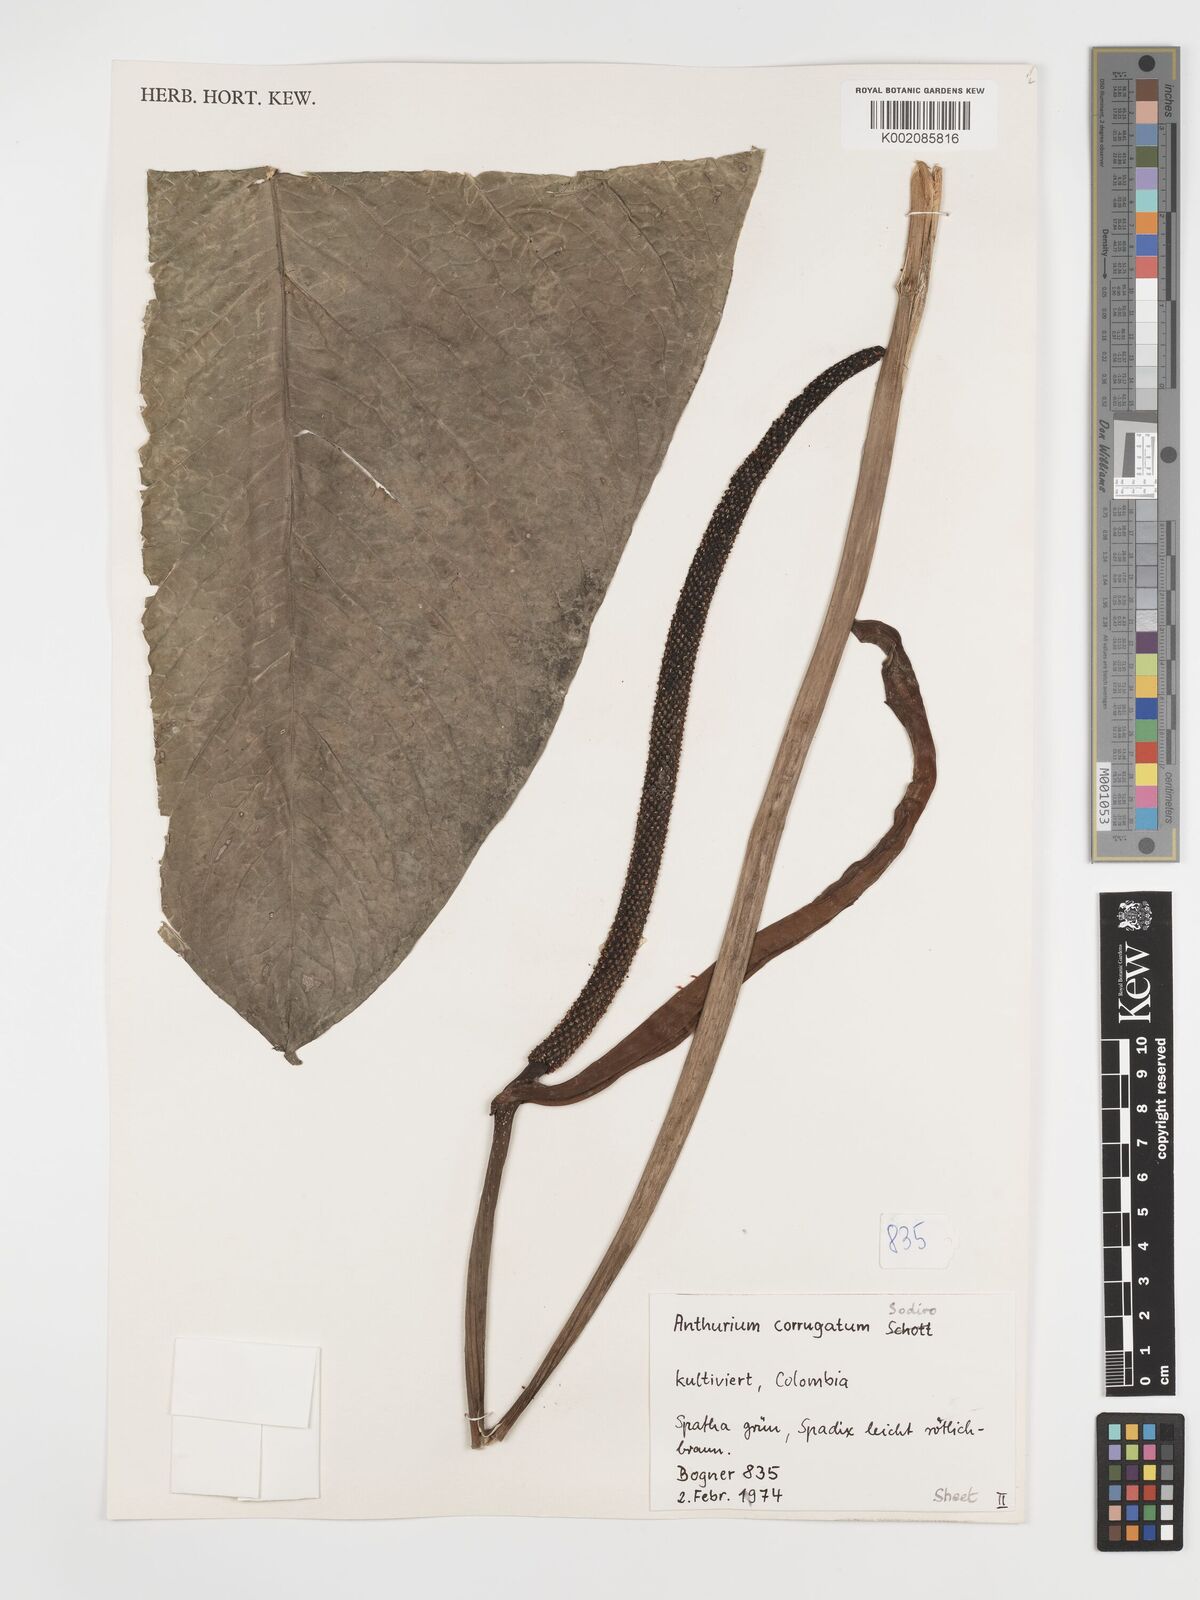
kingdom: Plantae
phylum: Tracheophyta
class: Liliopsida
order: Alismatales
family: Araceae
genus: Anthurium
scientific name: Anthurium corrugatum
